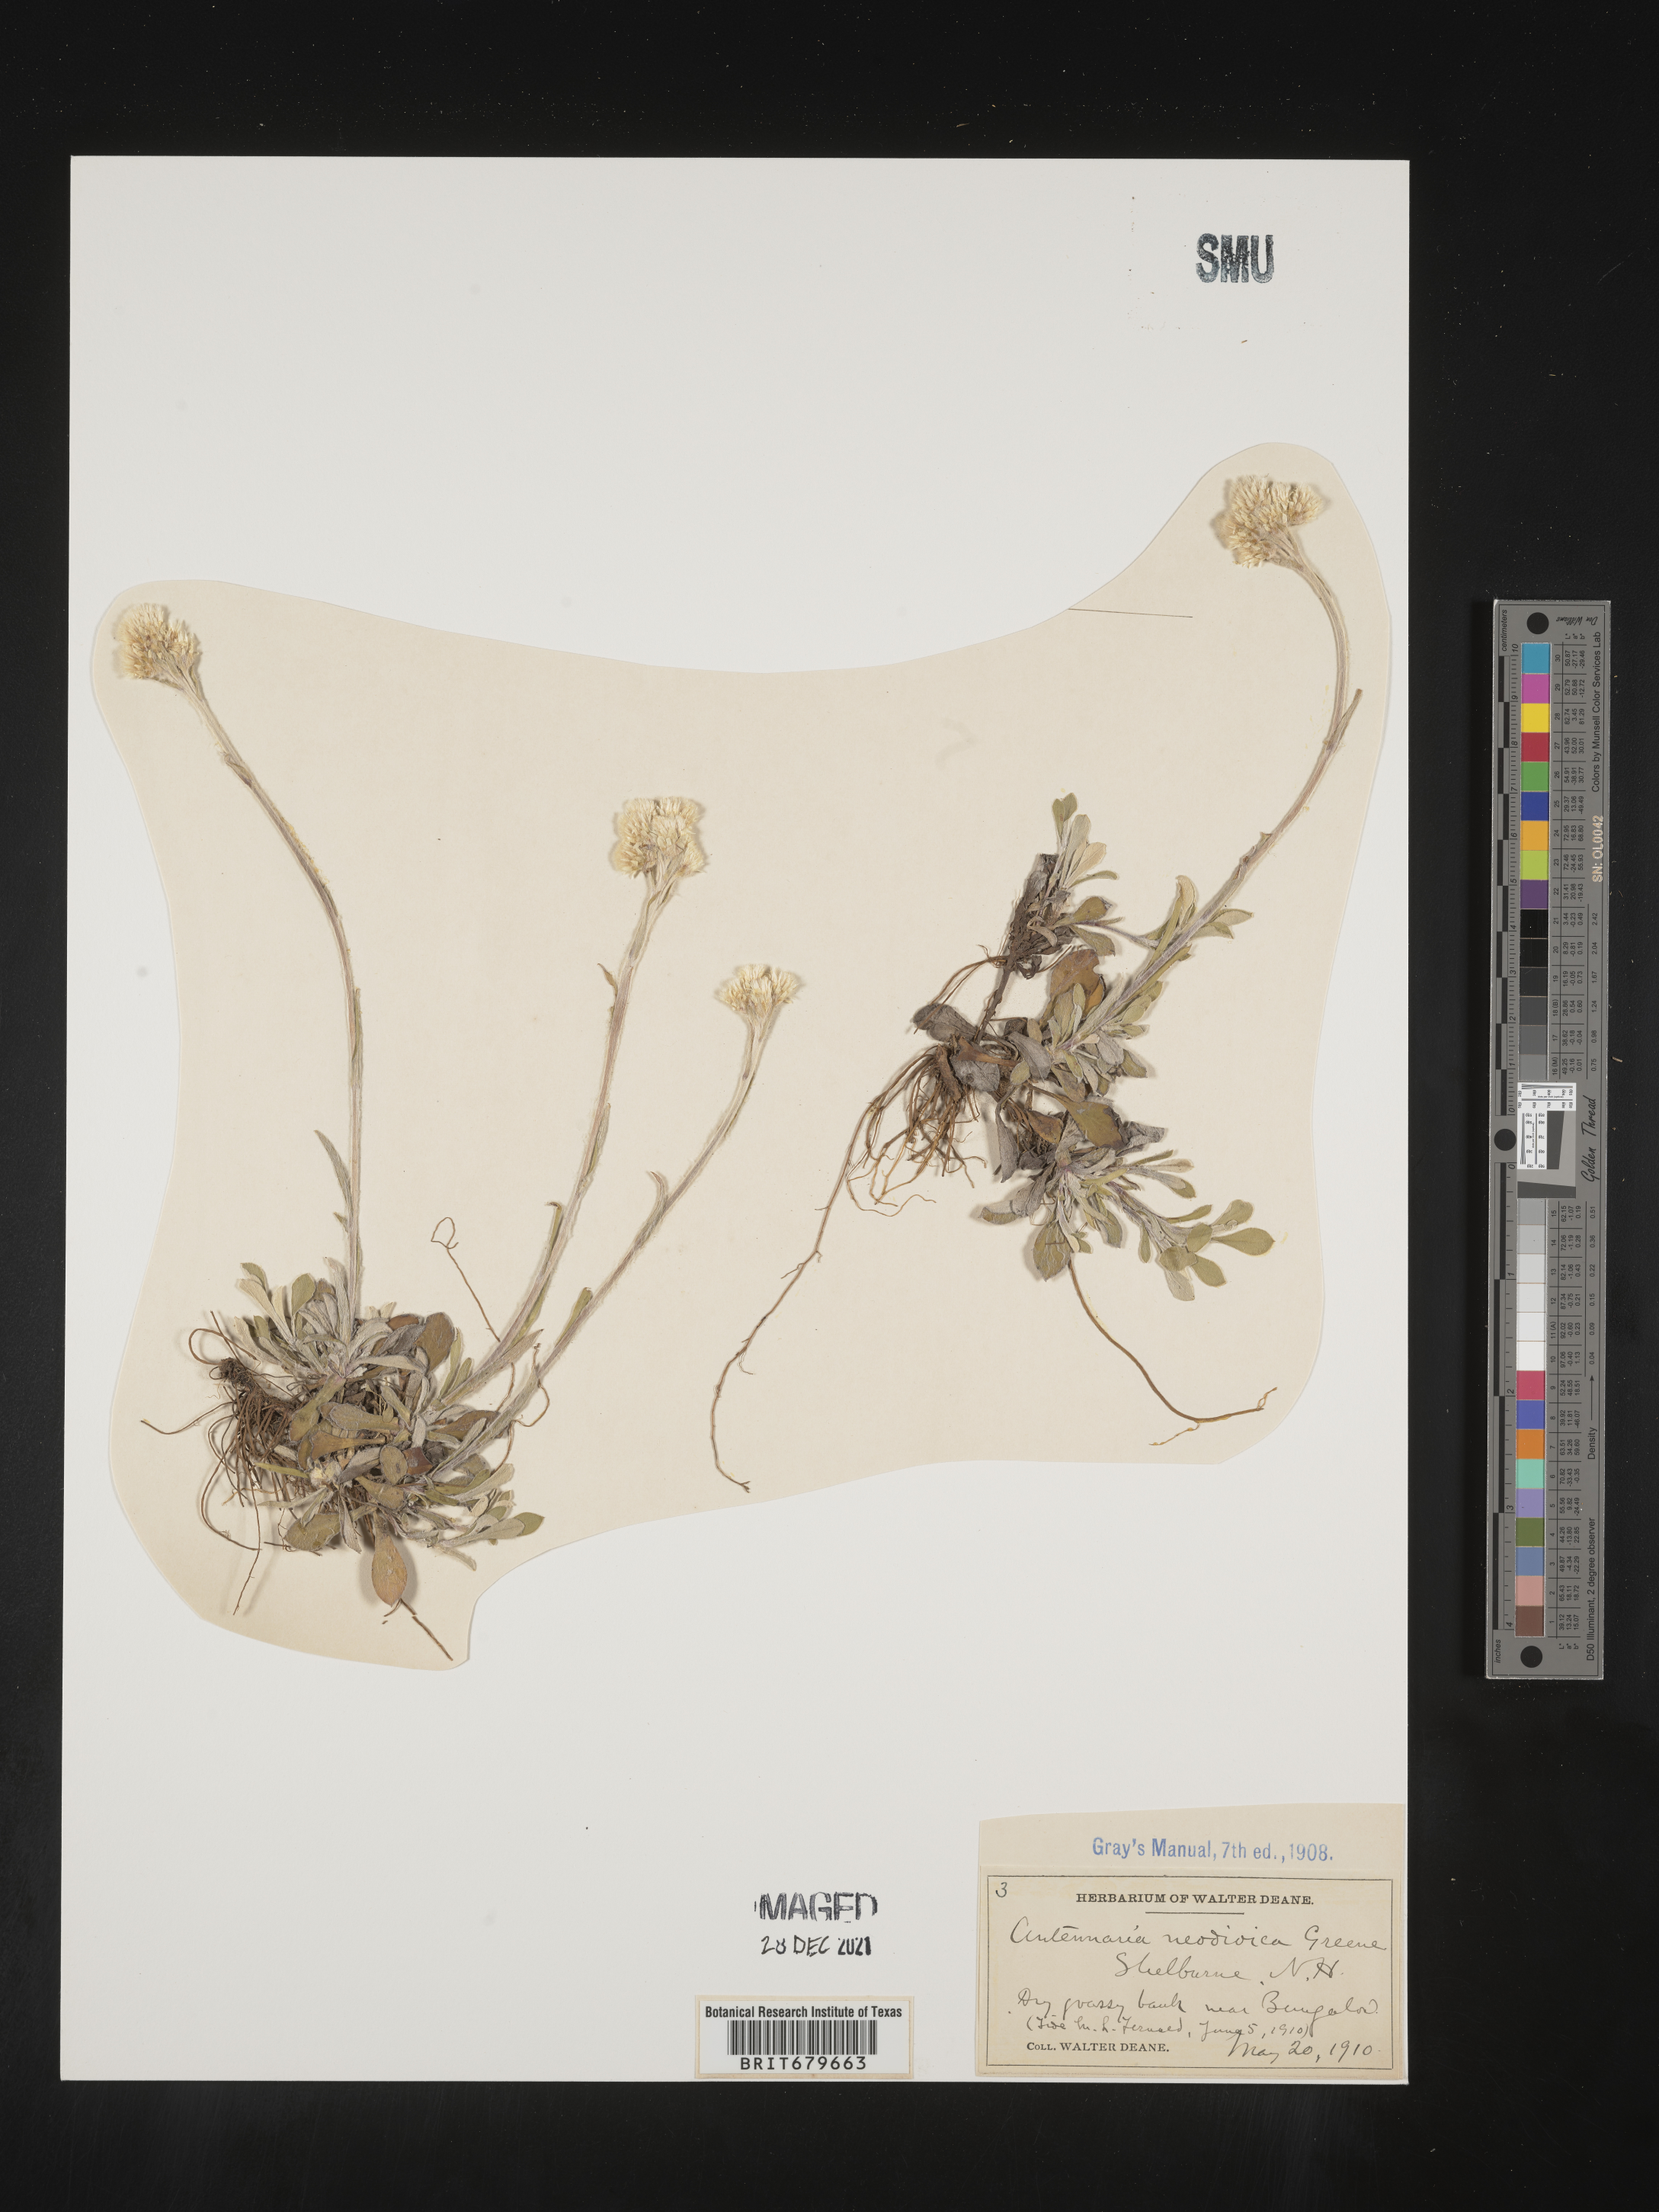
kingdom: Plantae
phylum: Tracheophyta
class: Magnoliopsida
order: Asterales
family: Asteraceae
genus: Antennaria
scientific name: Antennaria howellii
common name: Howell's pussytoes
